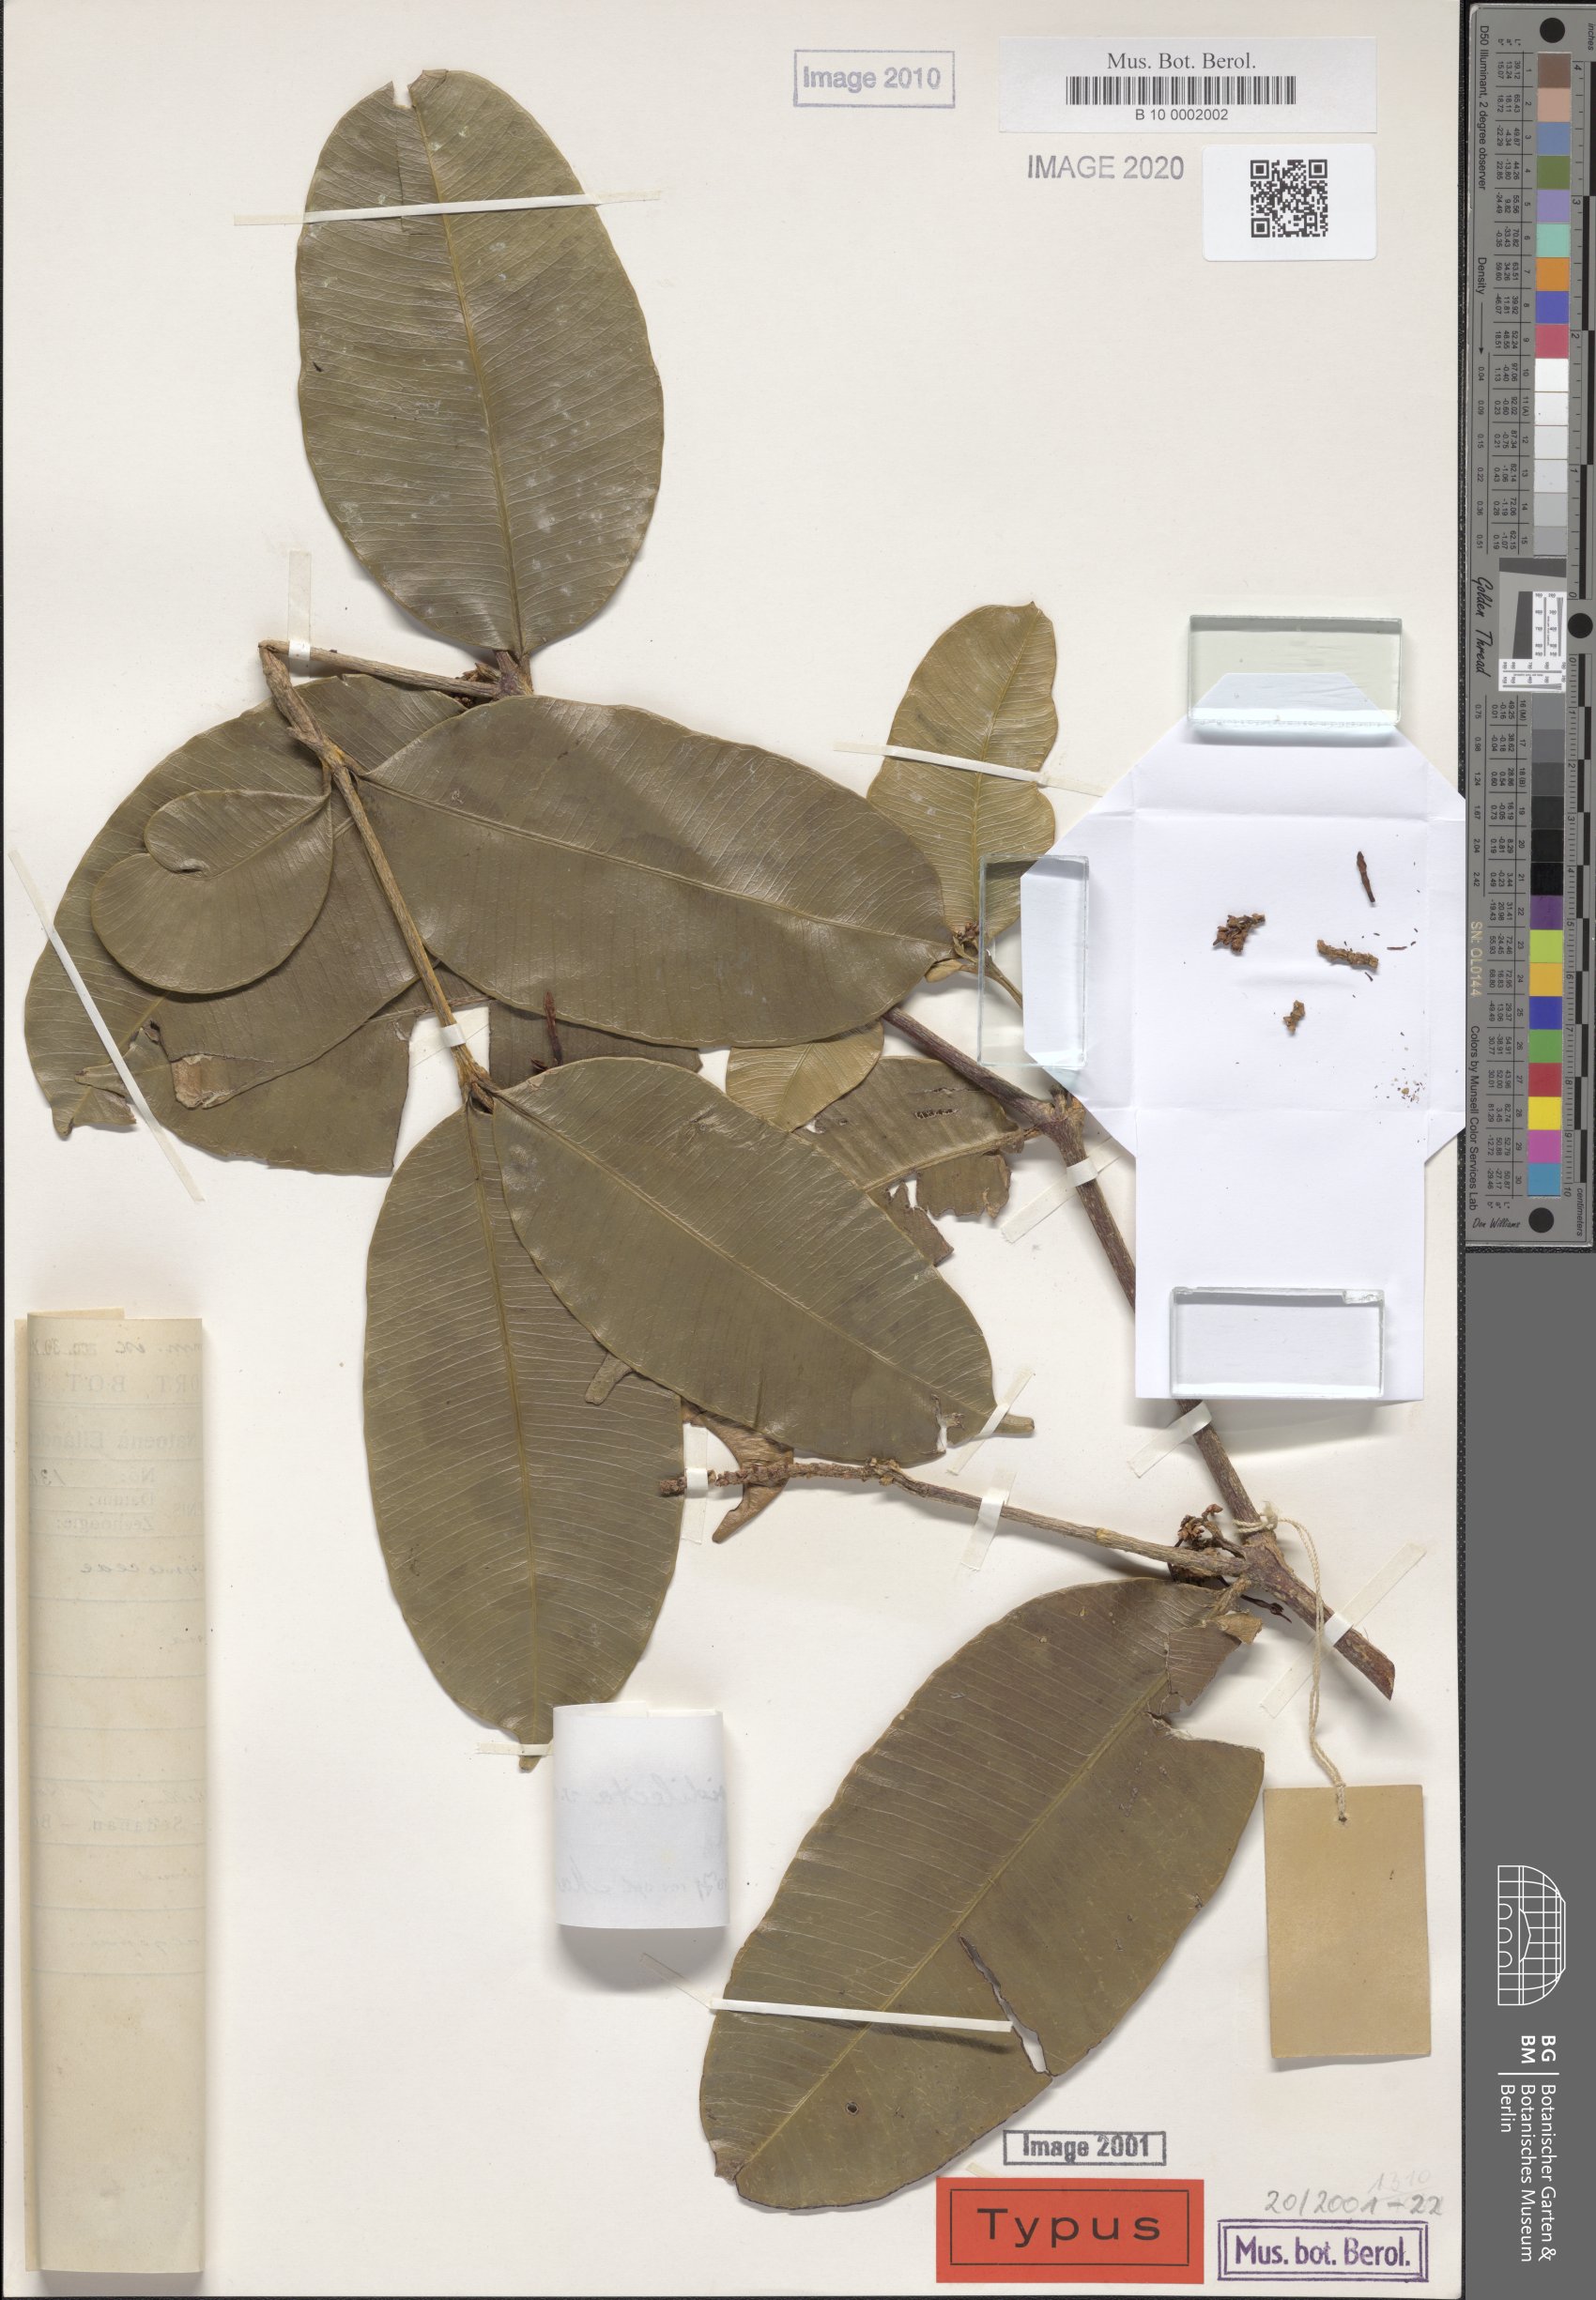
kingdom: Plantae
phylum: Tracheophyta
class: Magnoliopsida
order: Gentianales
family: Apocynaceae
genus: Kopsia
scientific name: Kopsia lapidilecta
